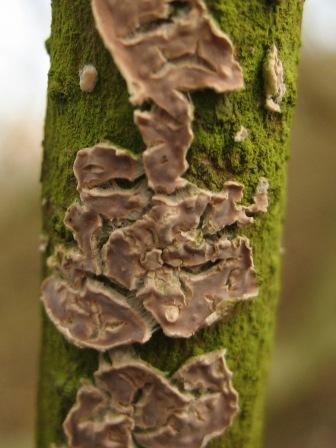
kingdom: Fungi
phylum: Basidiomycota
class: Agaricomycetes
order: Agaricales
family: Physalacriaceae
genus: Cylindrobasidium
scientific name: Cylindrobasidium evolvens
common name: sprækkehinde
